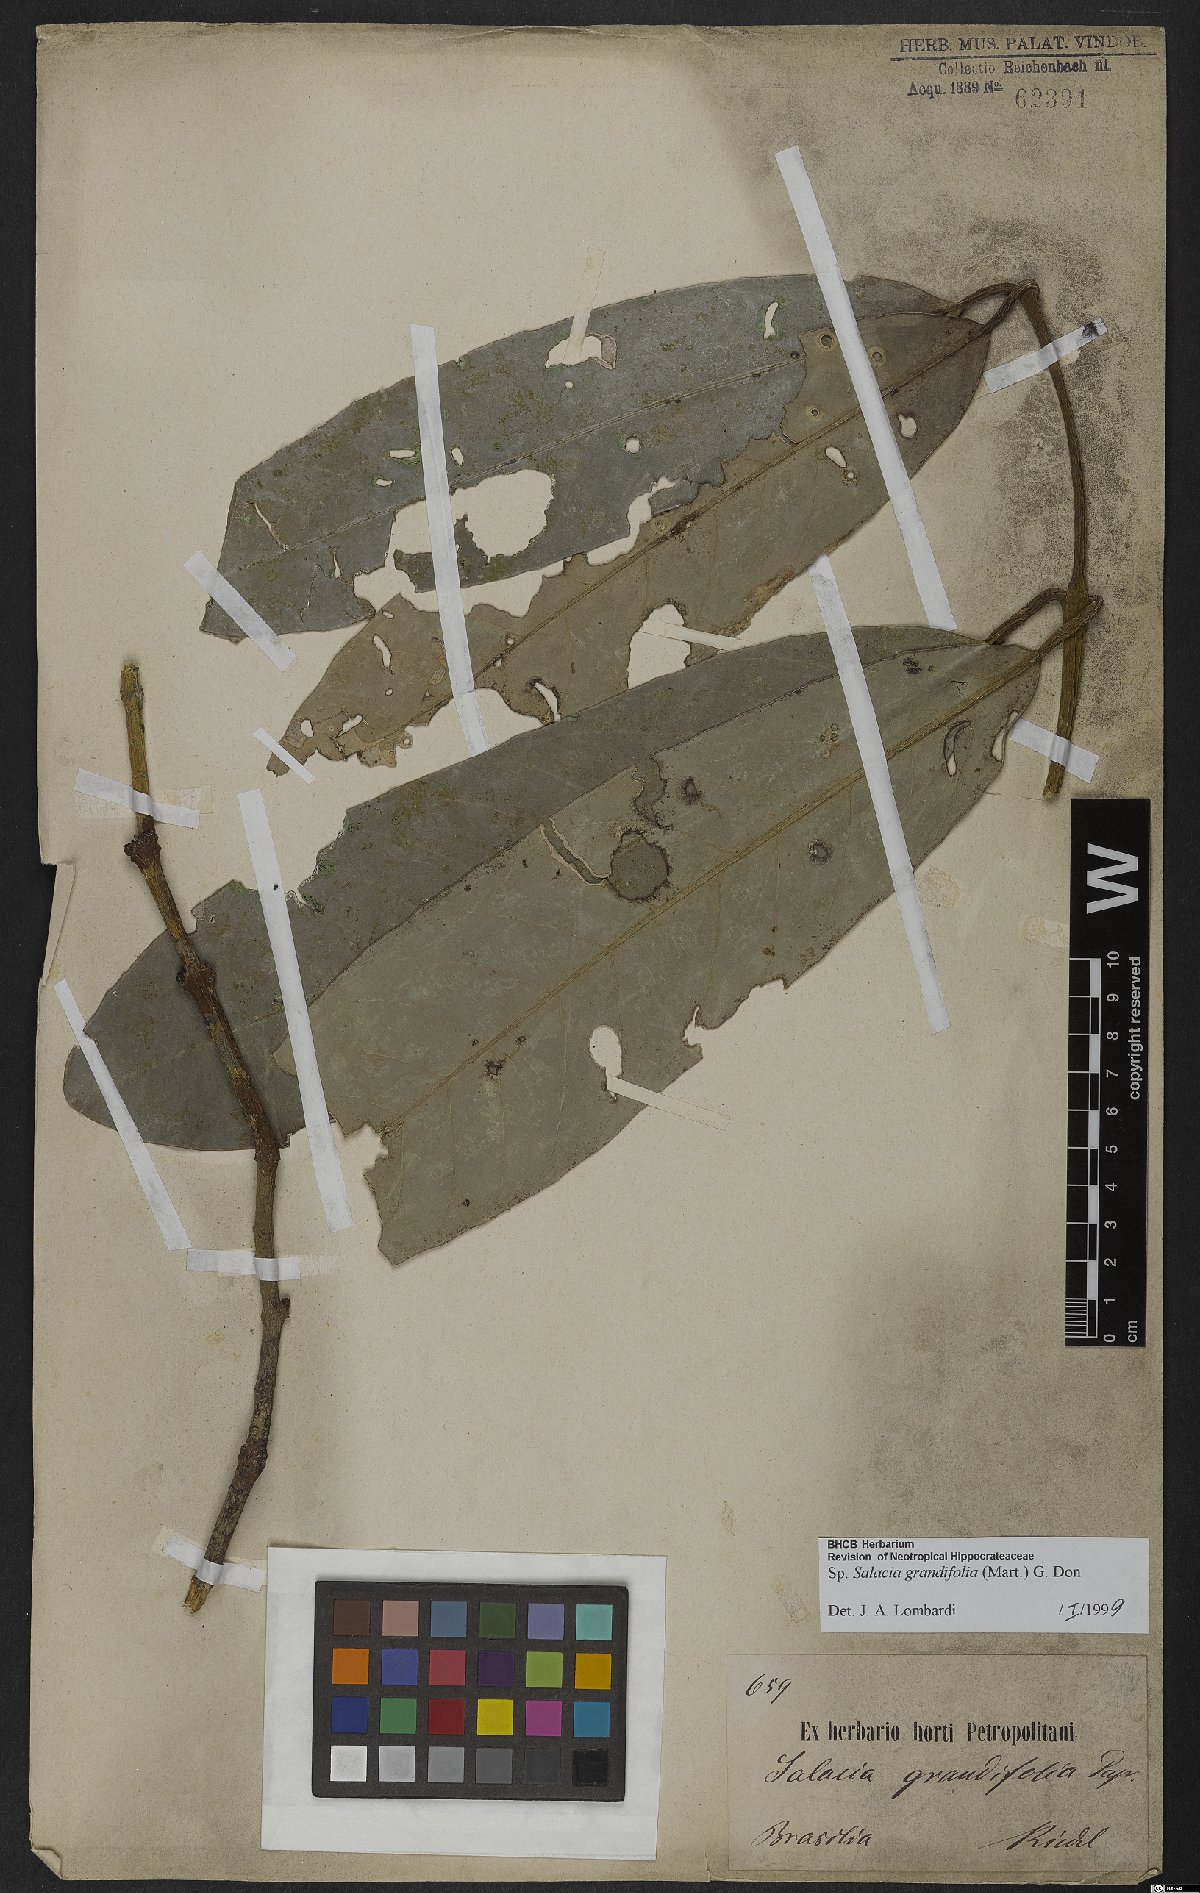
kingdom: Plantae
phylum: Tracheophyta
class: Magnoliopsida
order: Celastrales
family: Celastraceae
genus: Salacia
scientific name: Salacia grandifolia
